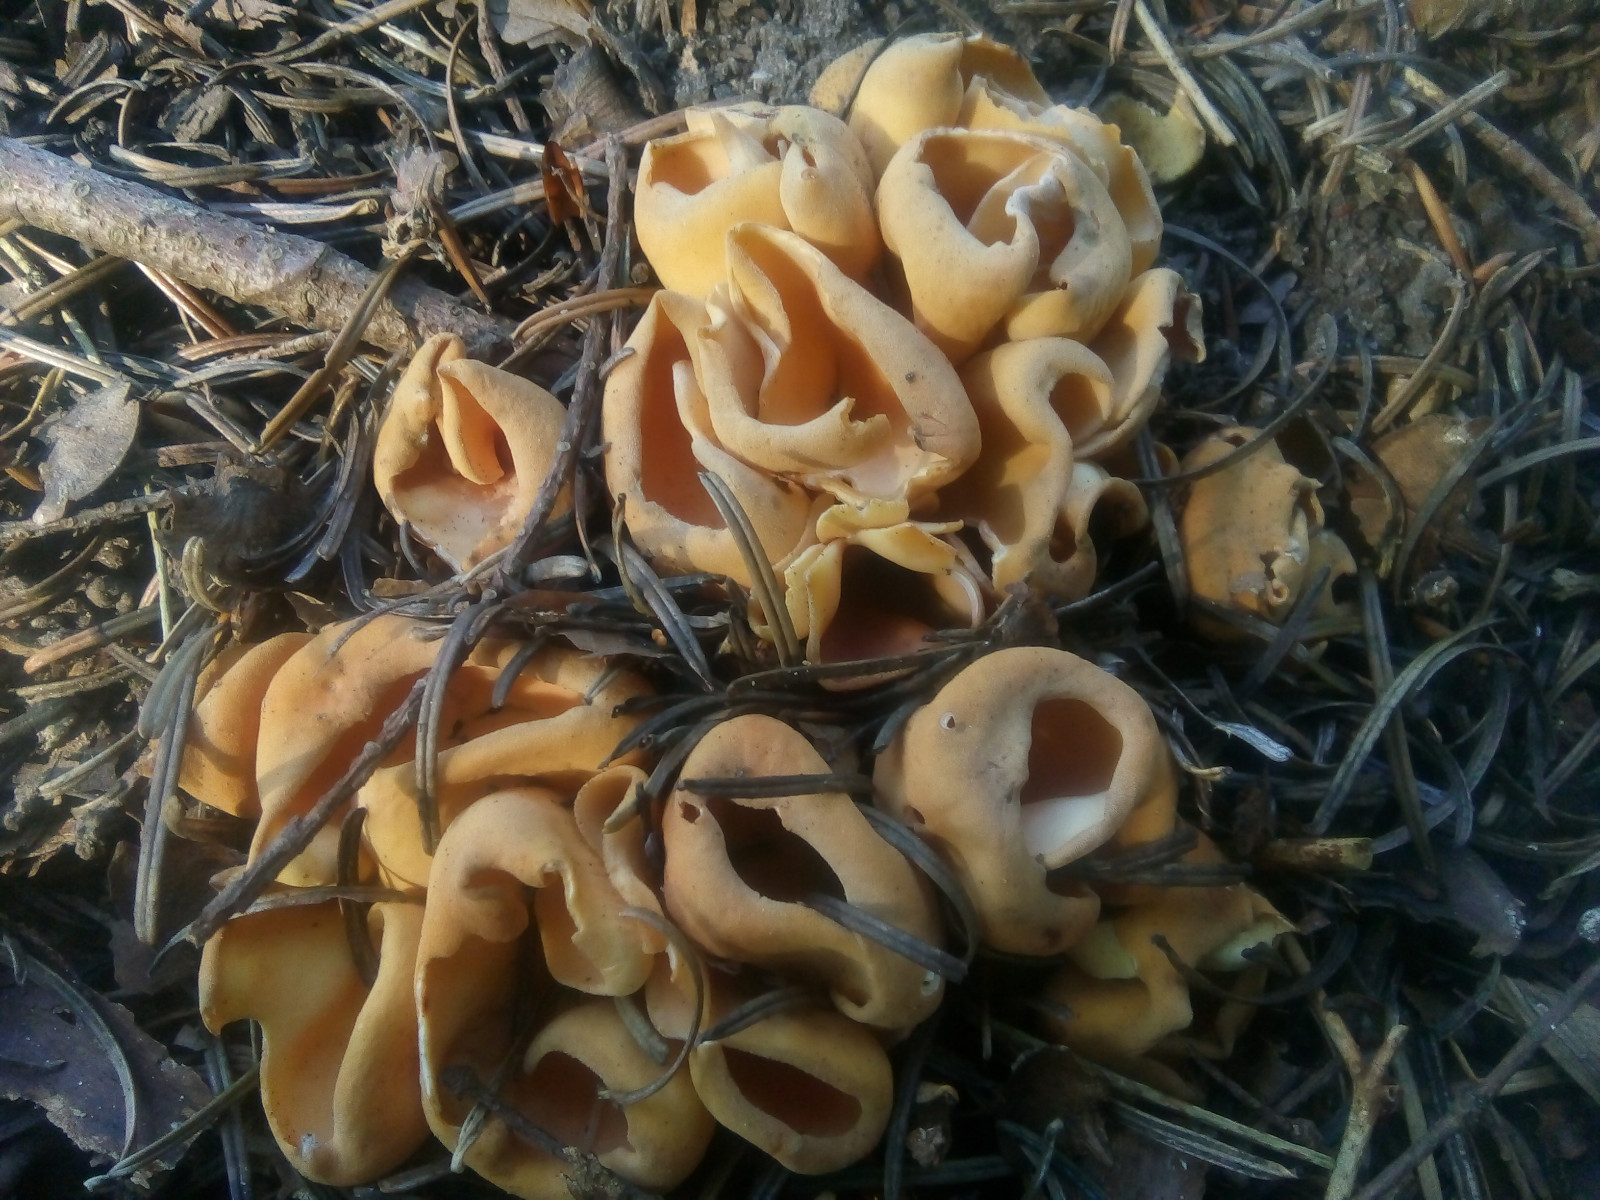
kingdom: Fungi
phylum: Ascomycota
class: Pezizomycetes
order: Pezizales
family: Otideaceae
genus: Otidea
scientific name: Otidea onotica
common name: æsel-ørebæger
